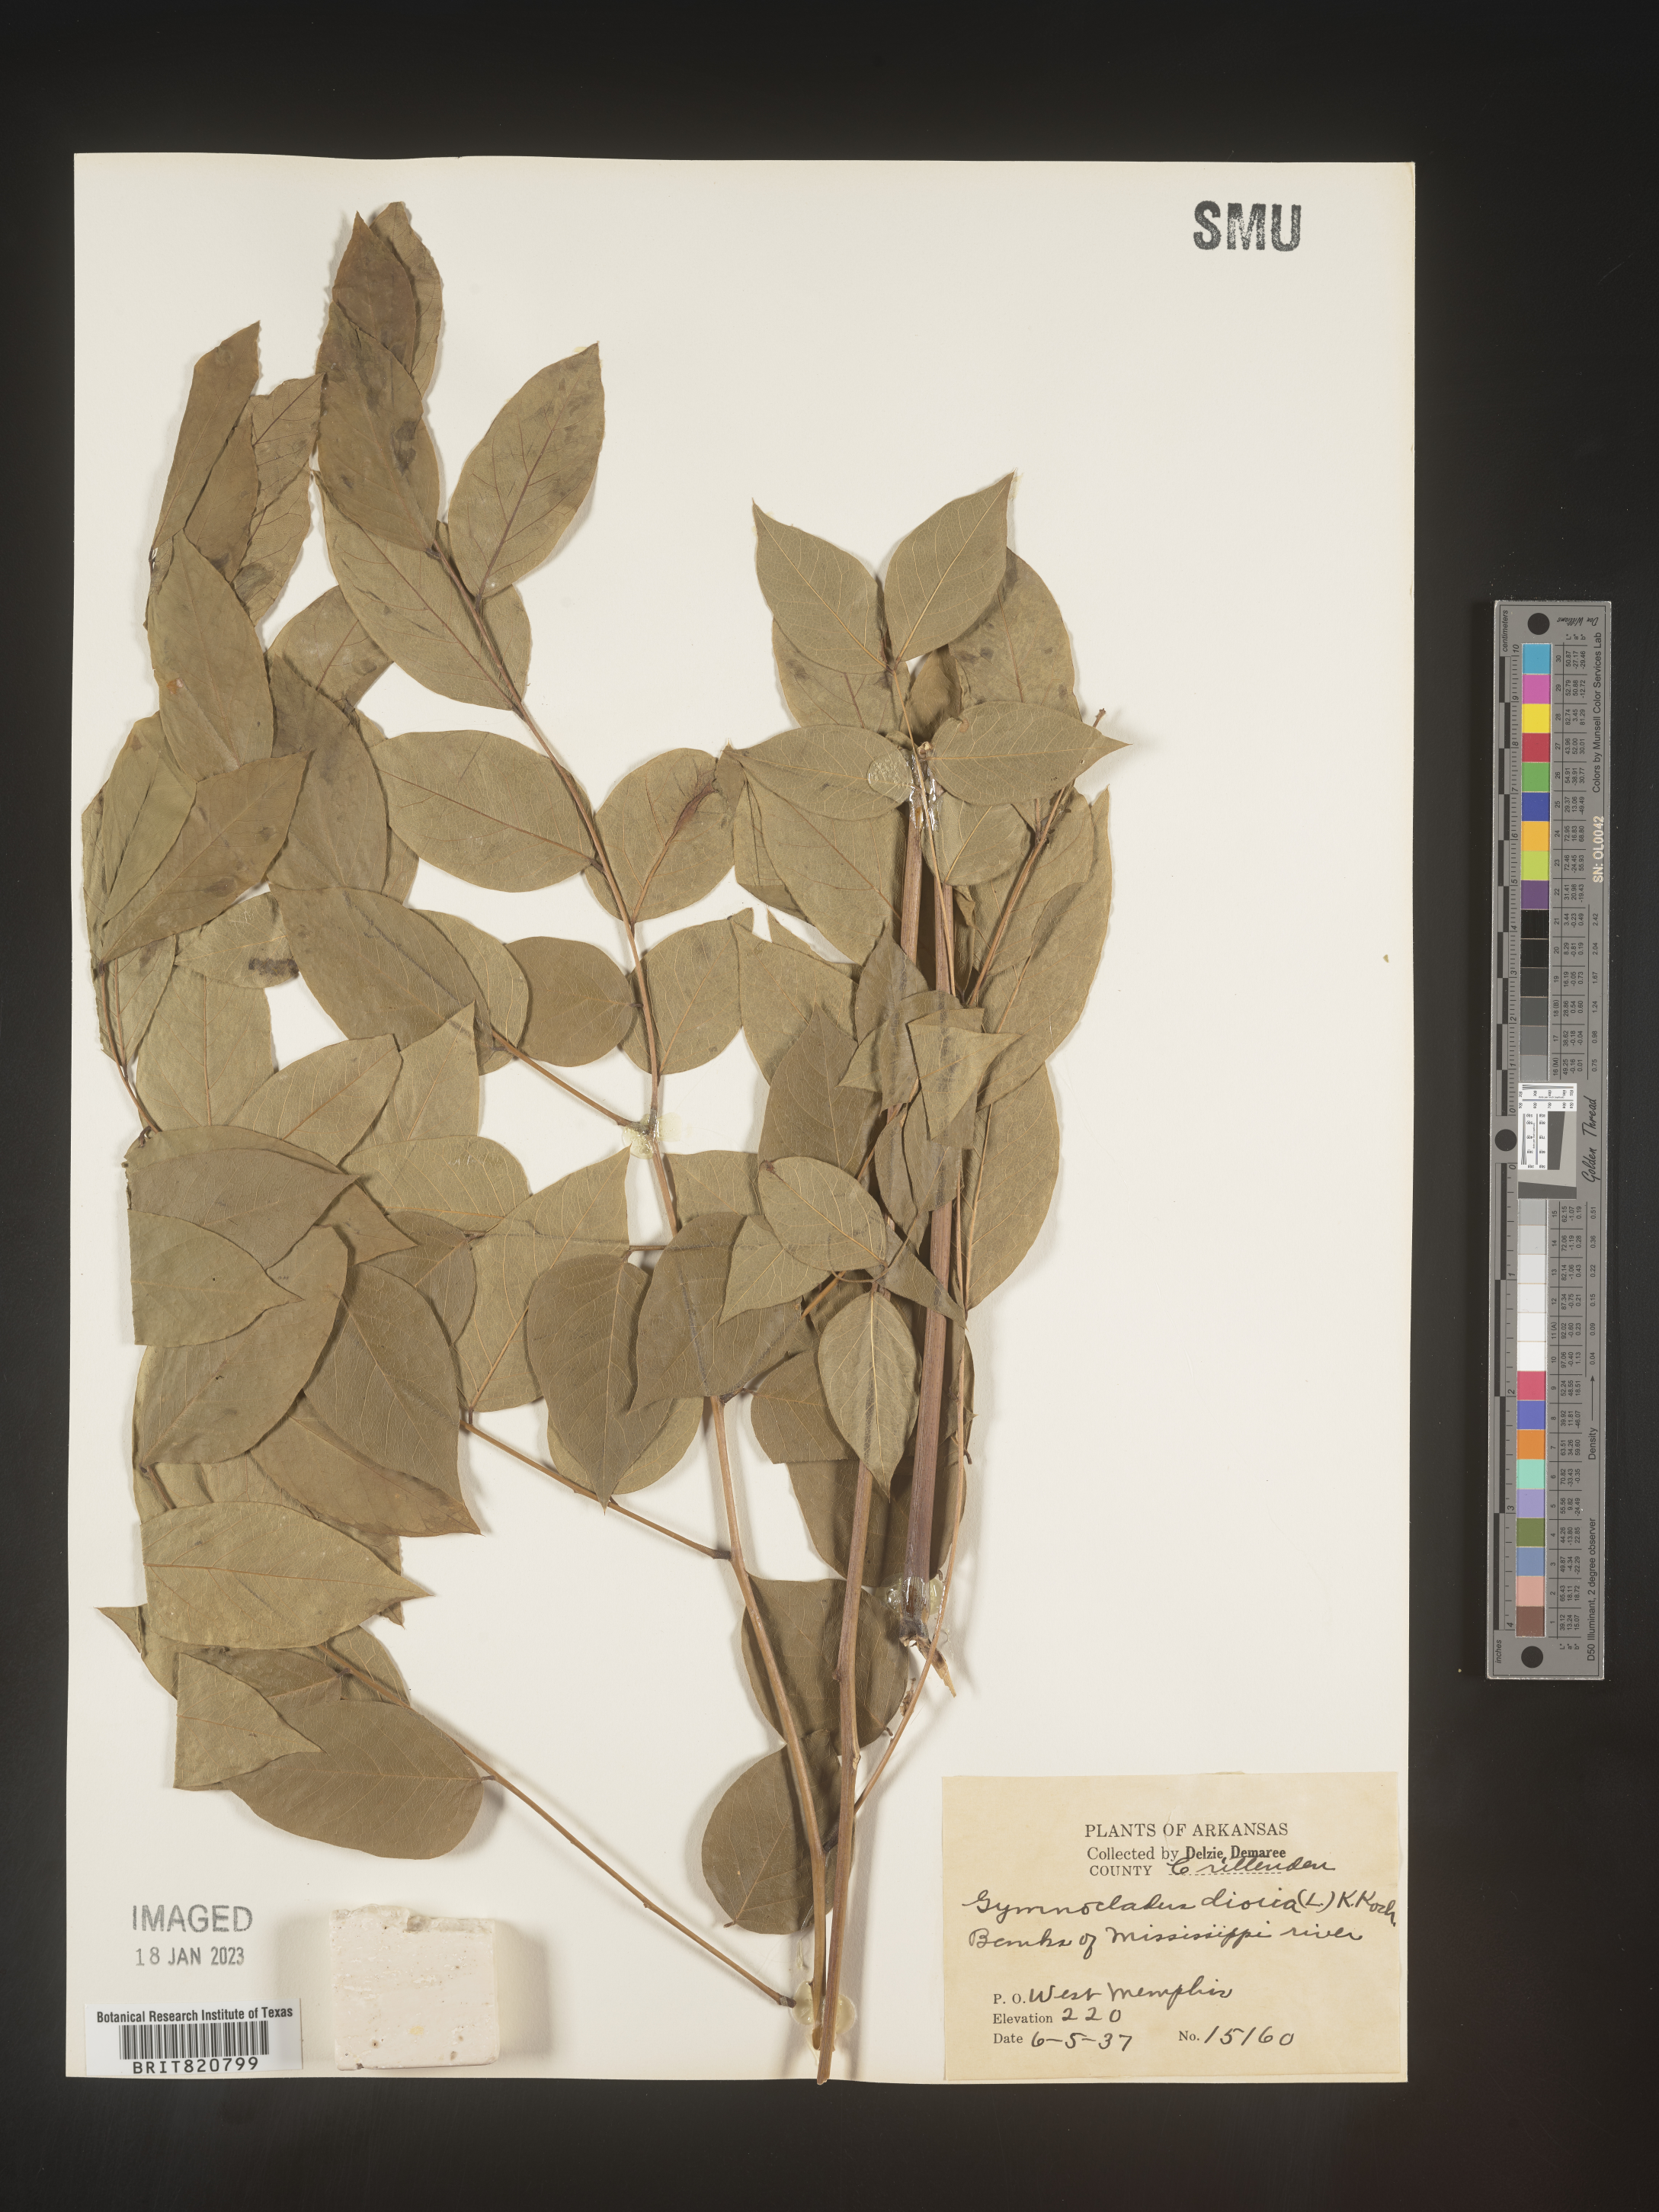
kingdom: Plantae
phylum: Tracheophyta
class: Magnoliopsida
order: Fabales
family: Fabaceae
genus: Gymnocladus
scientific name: Gymnocladus
